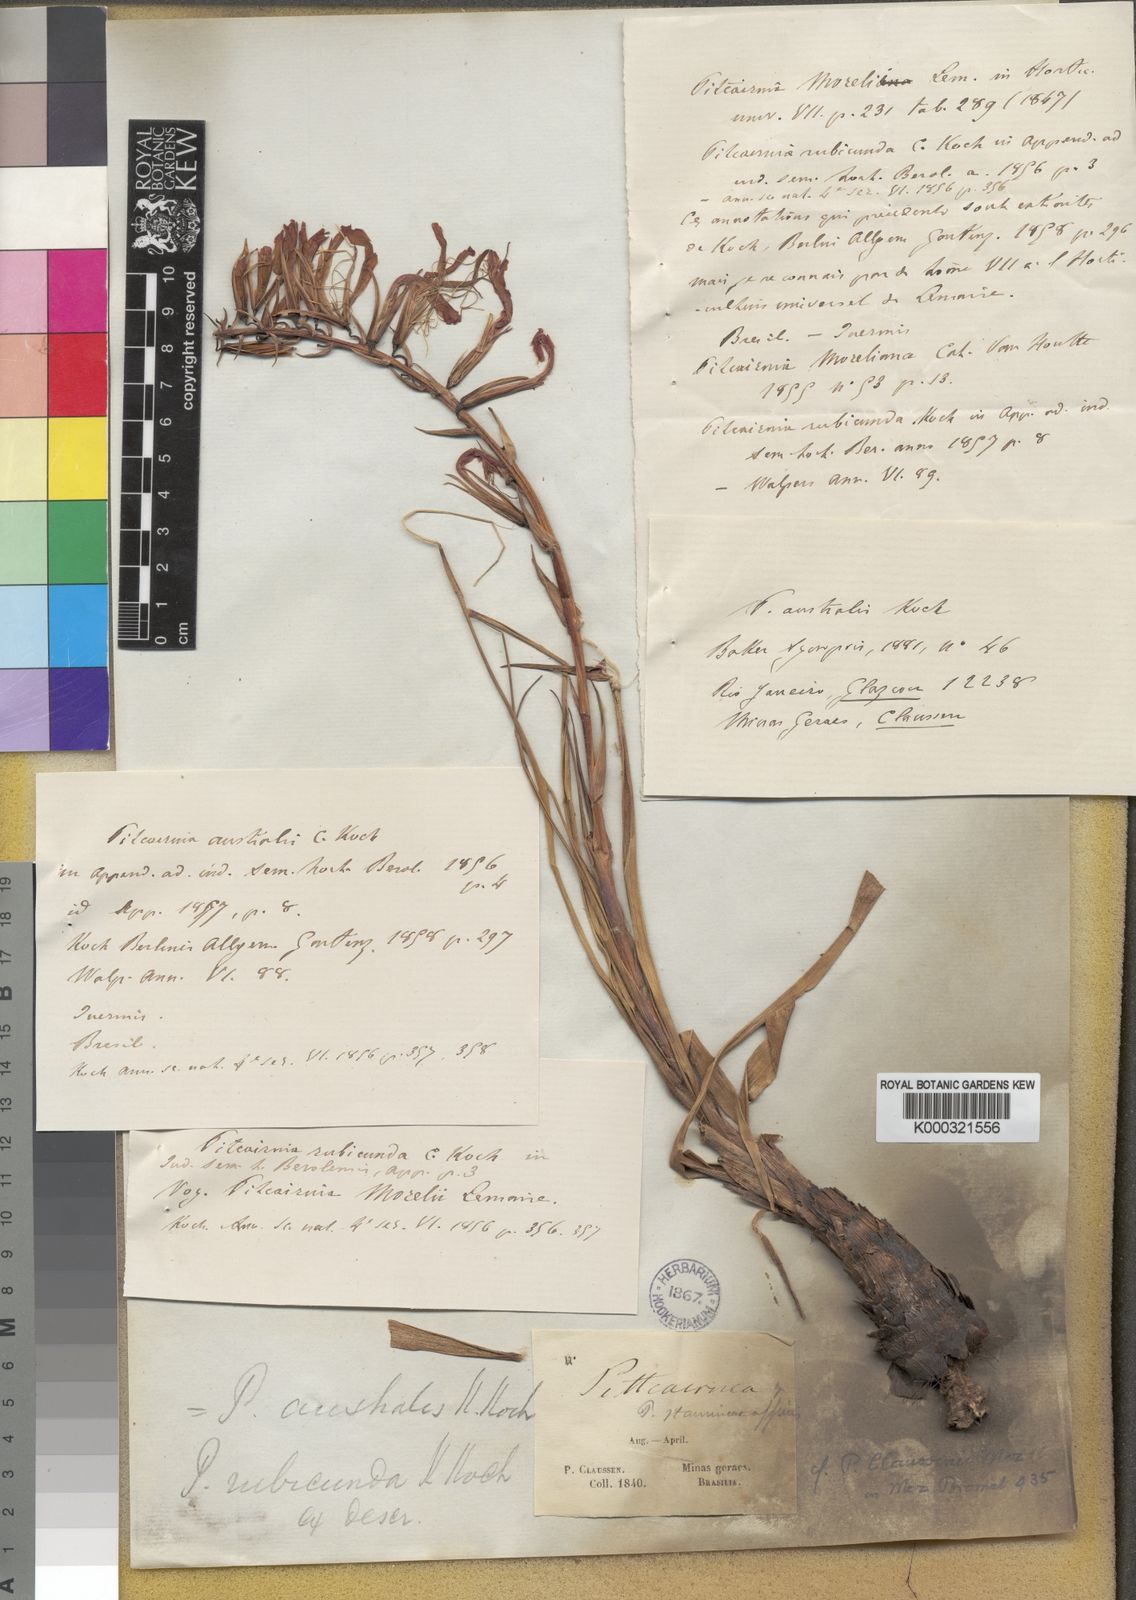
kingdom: Plantae
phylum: Tracheophyta
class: Liliopsida
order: Poales
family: Bromeliaceae
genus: Pitcairnia
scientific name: Pitcairnia flammea
